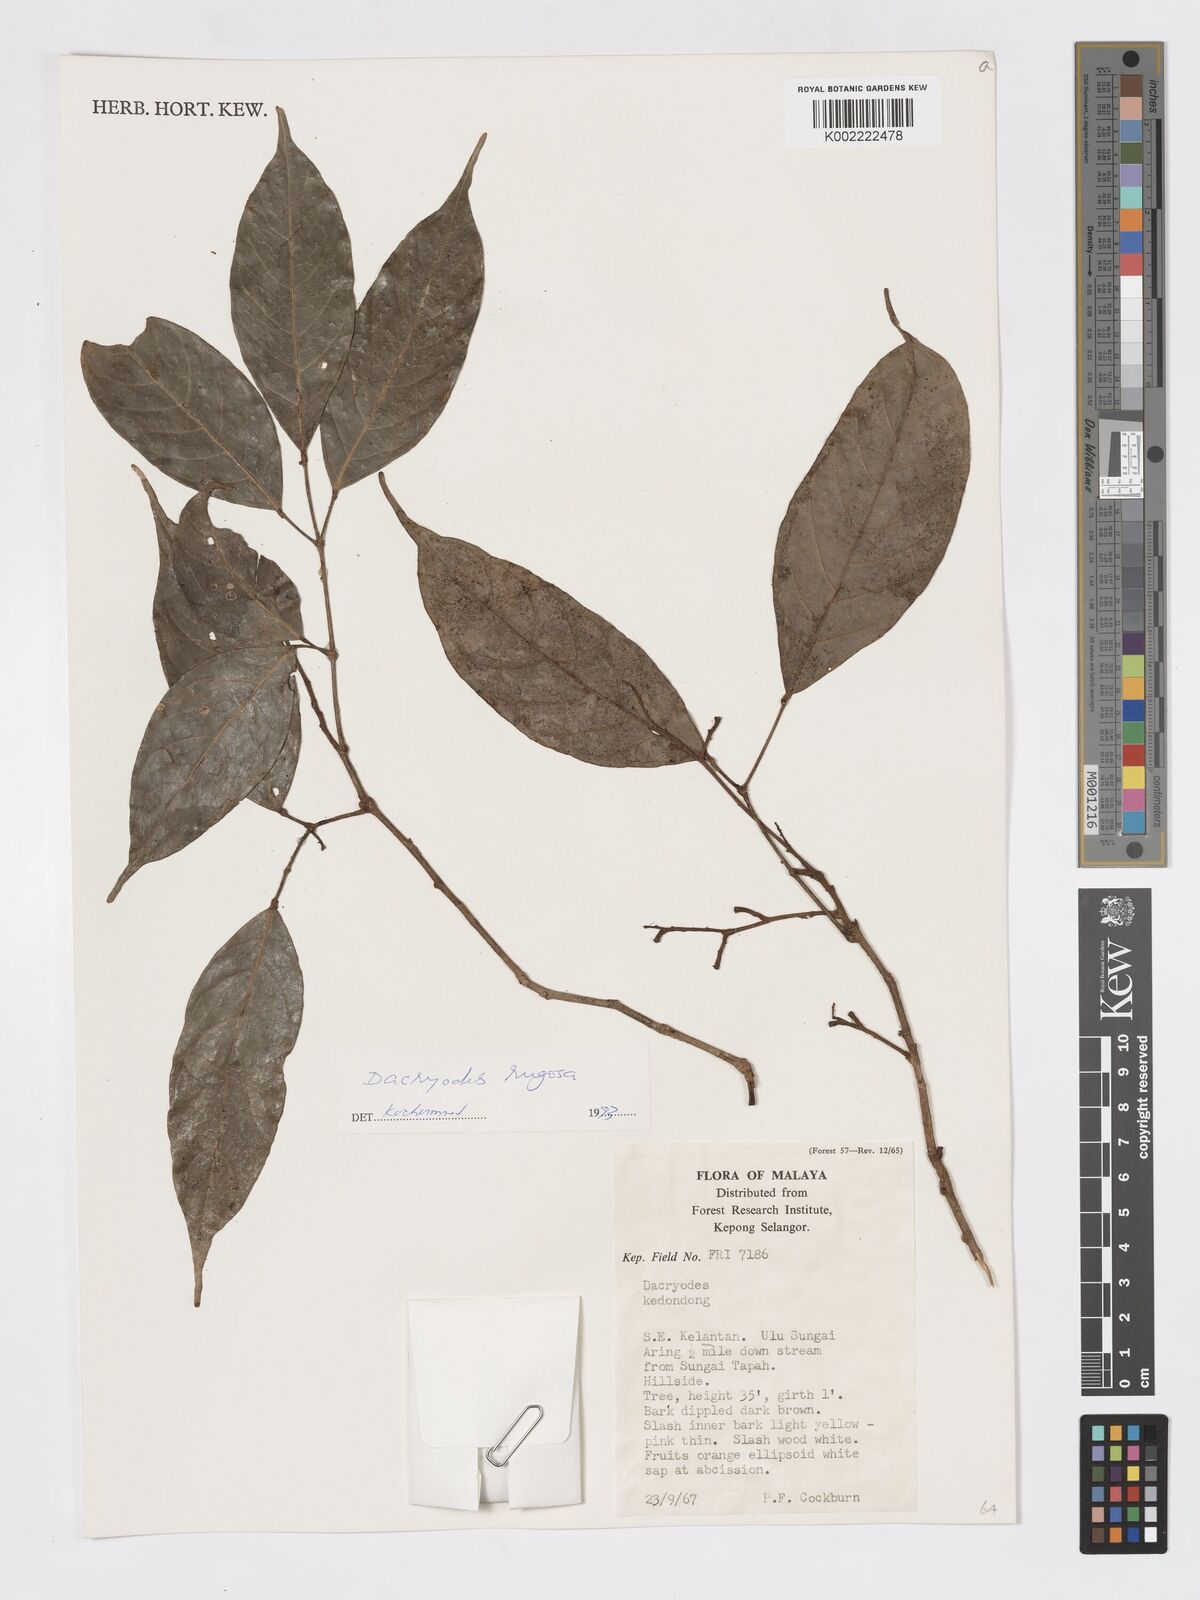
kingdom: Plantae
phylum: Tracheophyta
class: Magnoliopsida
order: Sapindales
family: Burseraceae
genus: Dacryodes
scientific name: Dacryodes rugosa
